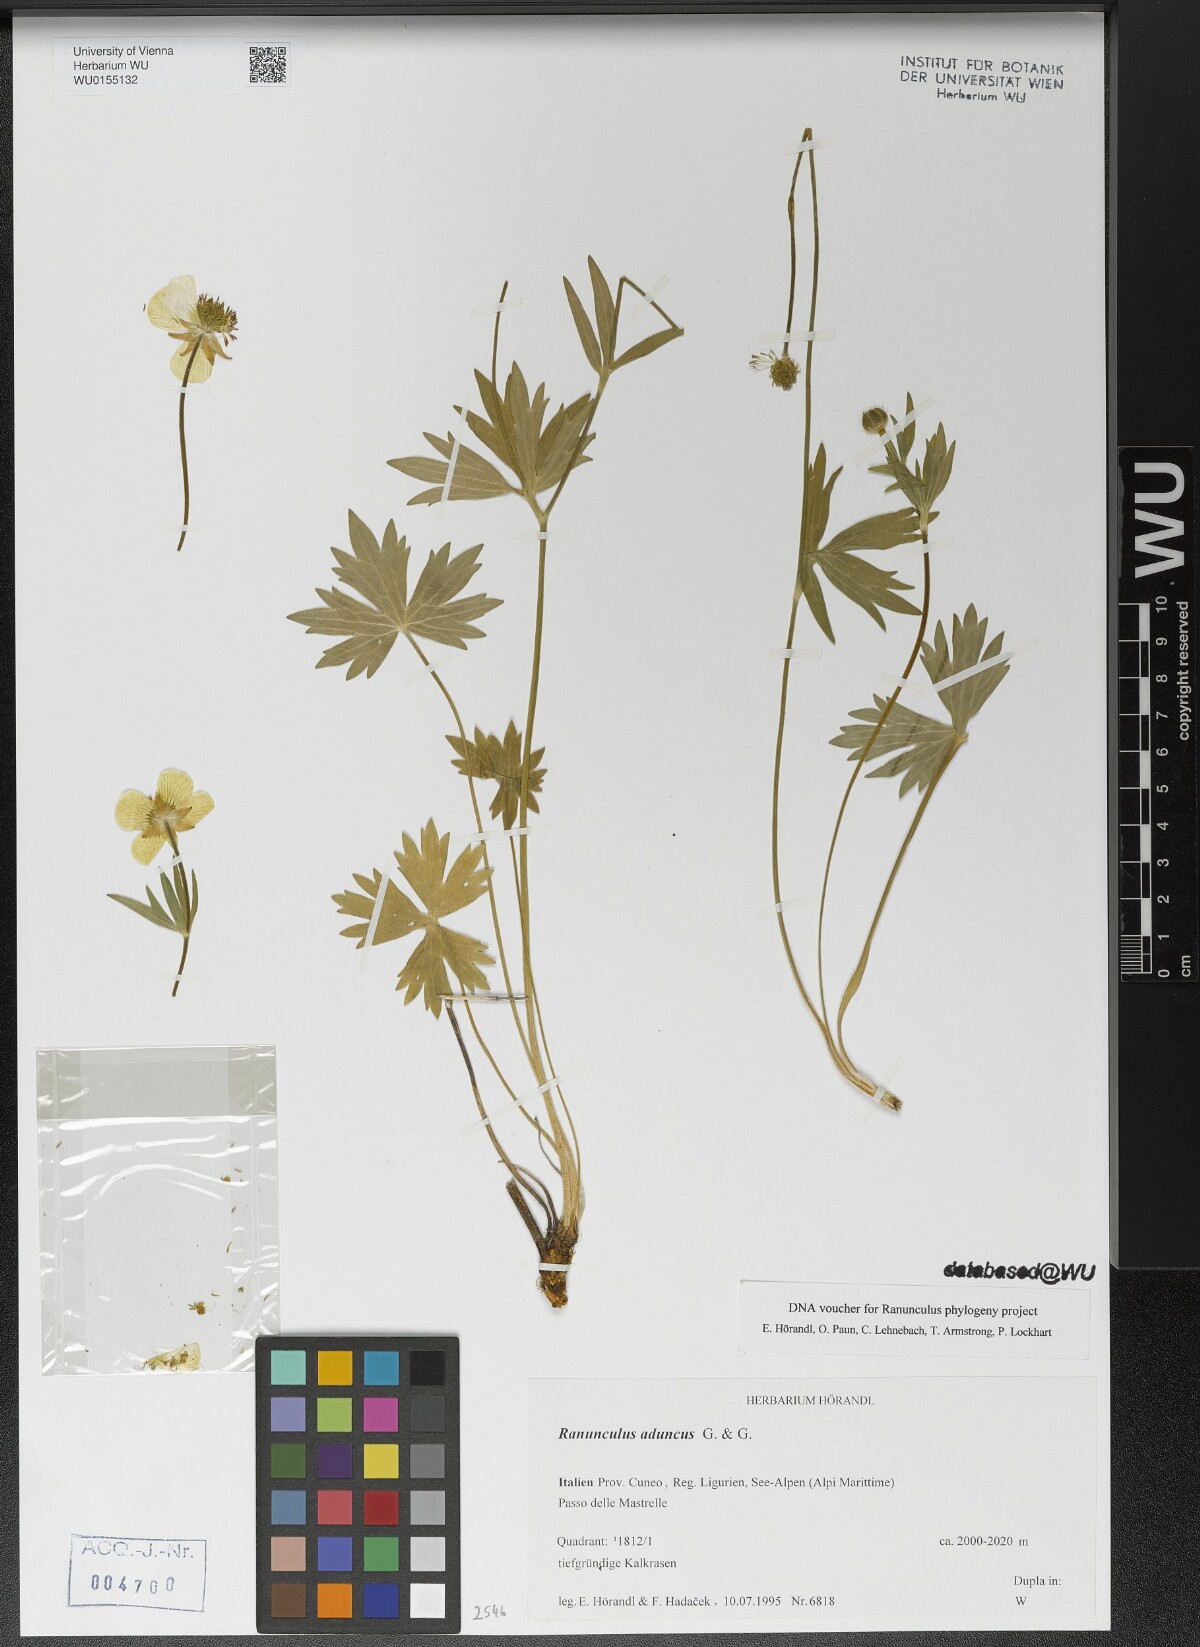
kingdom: Plantae
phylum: Tracheophyta
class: Magnoliopsida
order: Ranunculales
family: Ranunculaceae
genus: Ranunculus
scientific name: Ranunculus aduncus
